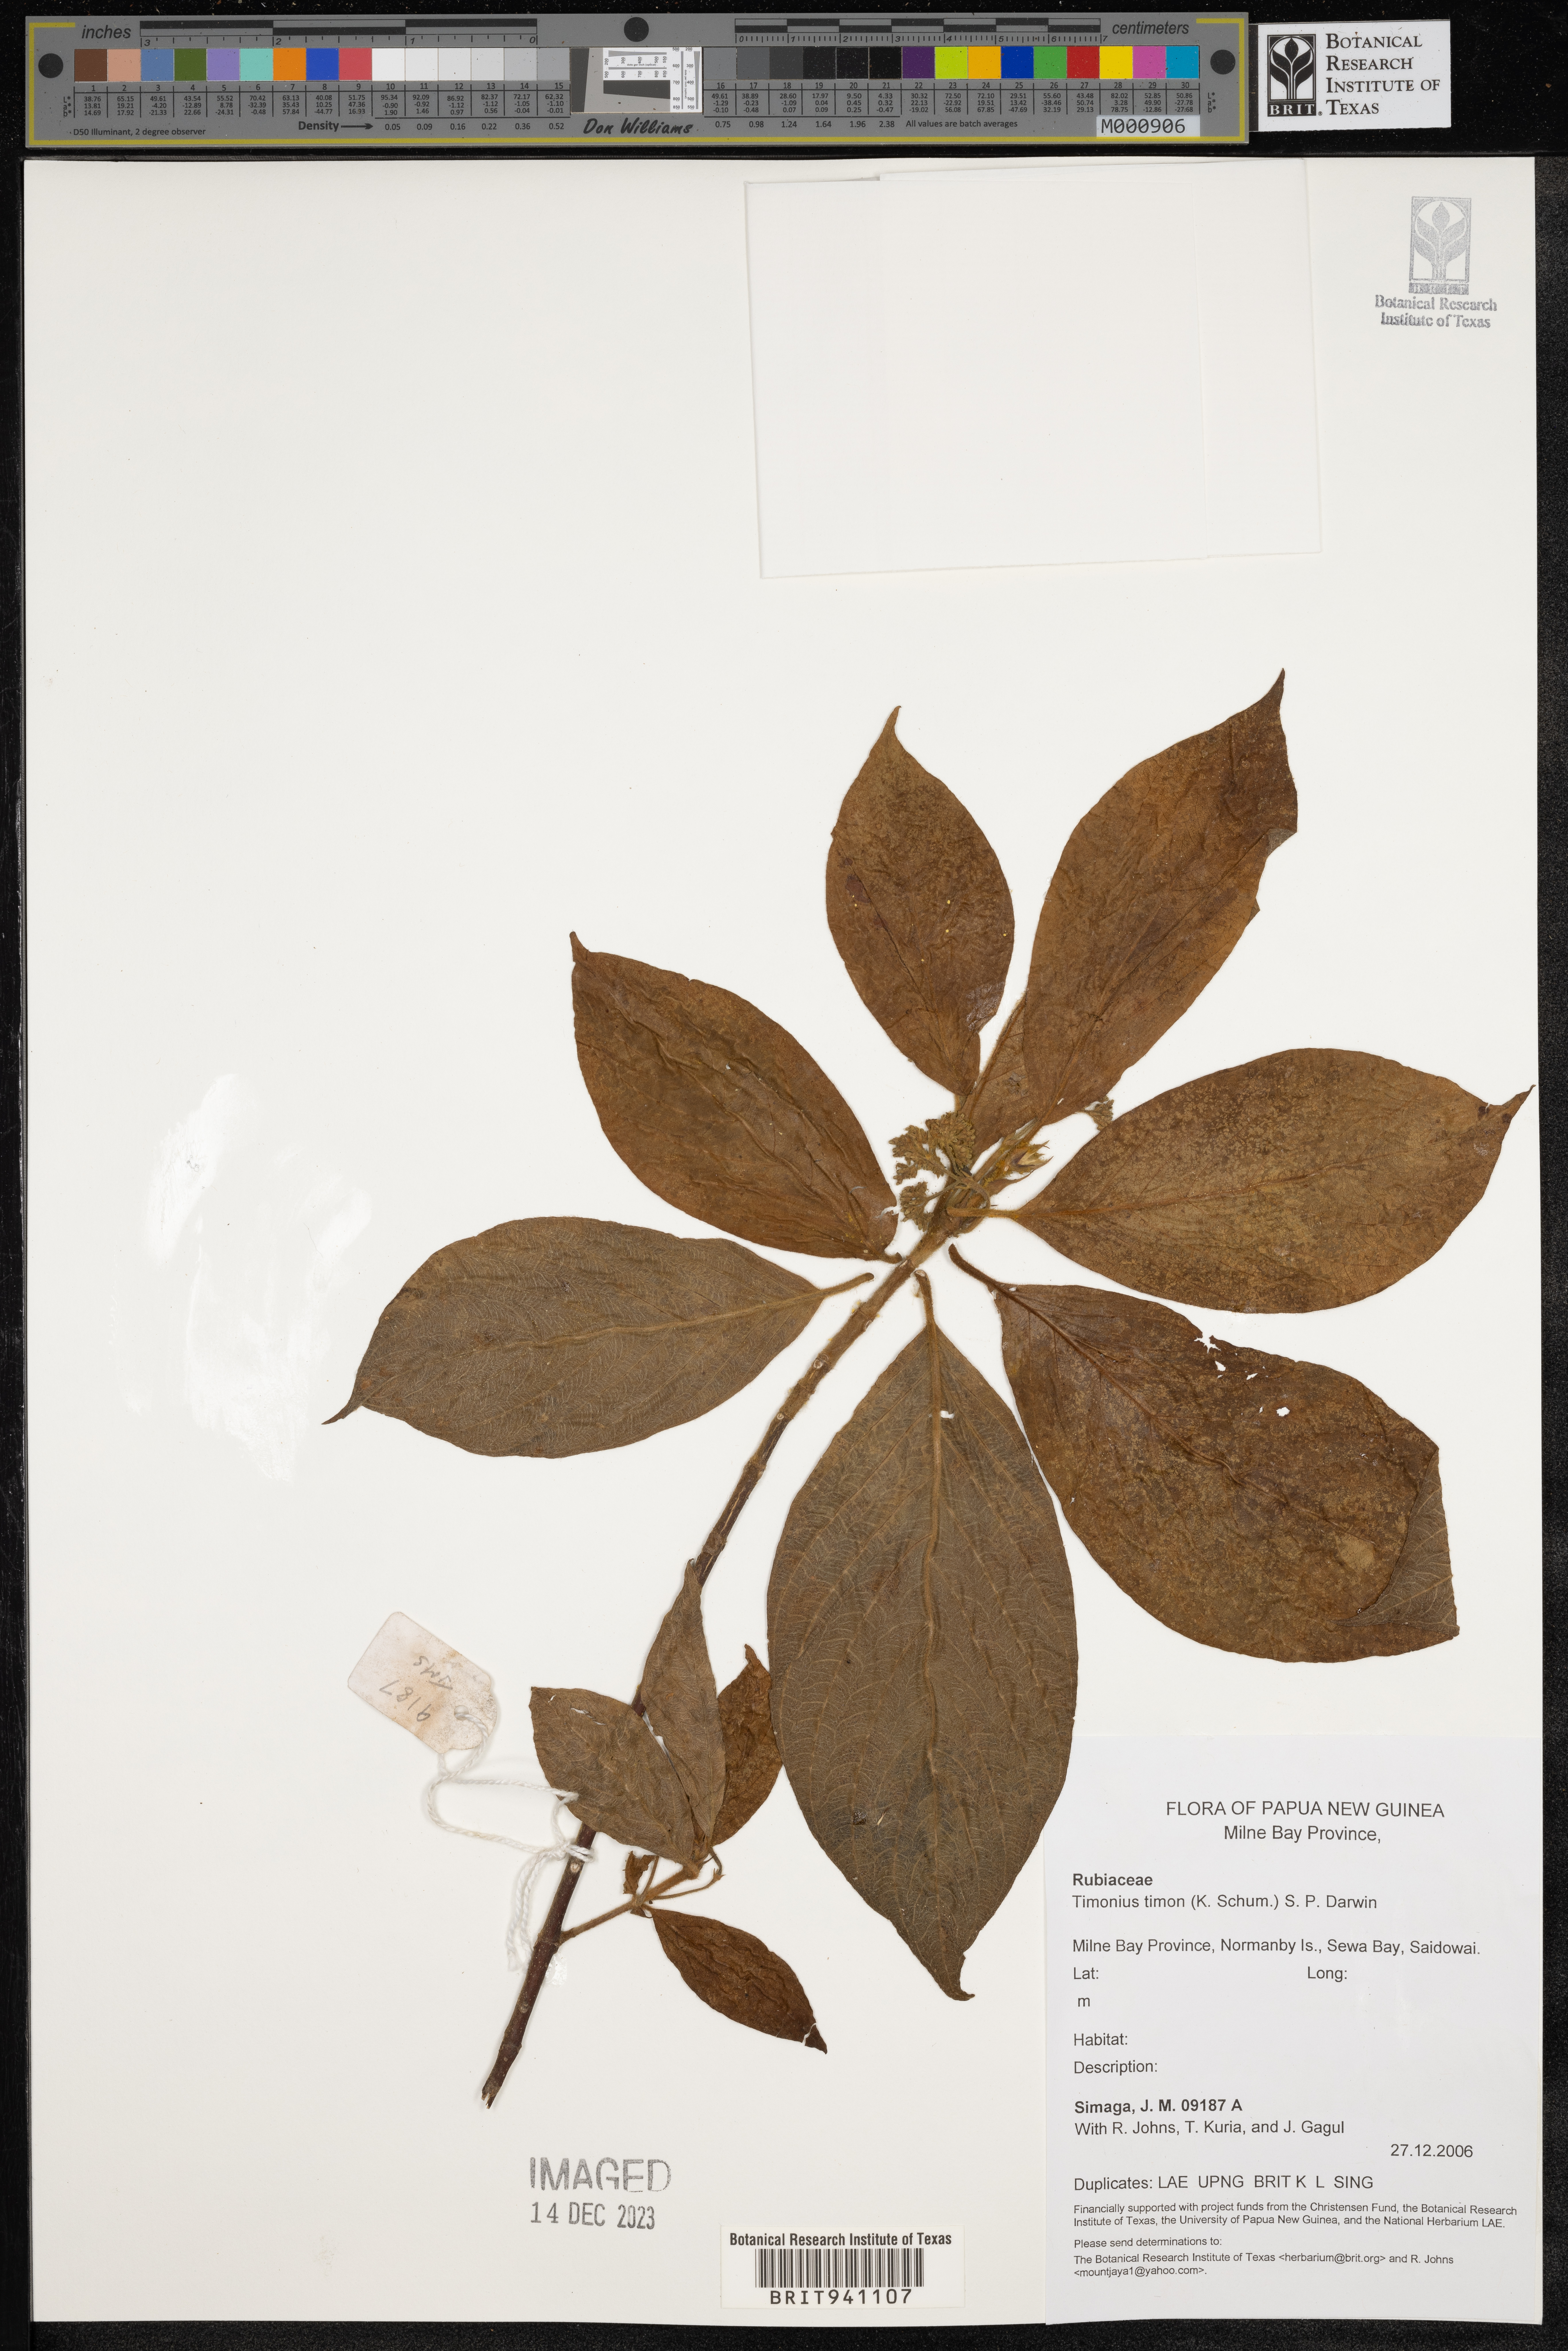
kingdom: Plantae
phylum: Tracheophyta
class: Magnoliopsida
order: Gentianales
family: Rubiaceae
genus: Timonius
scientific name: Timonius
